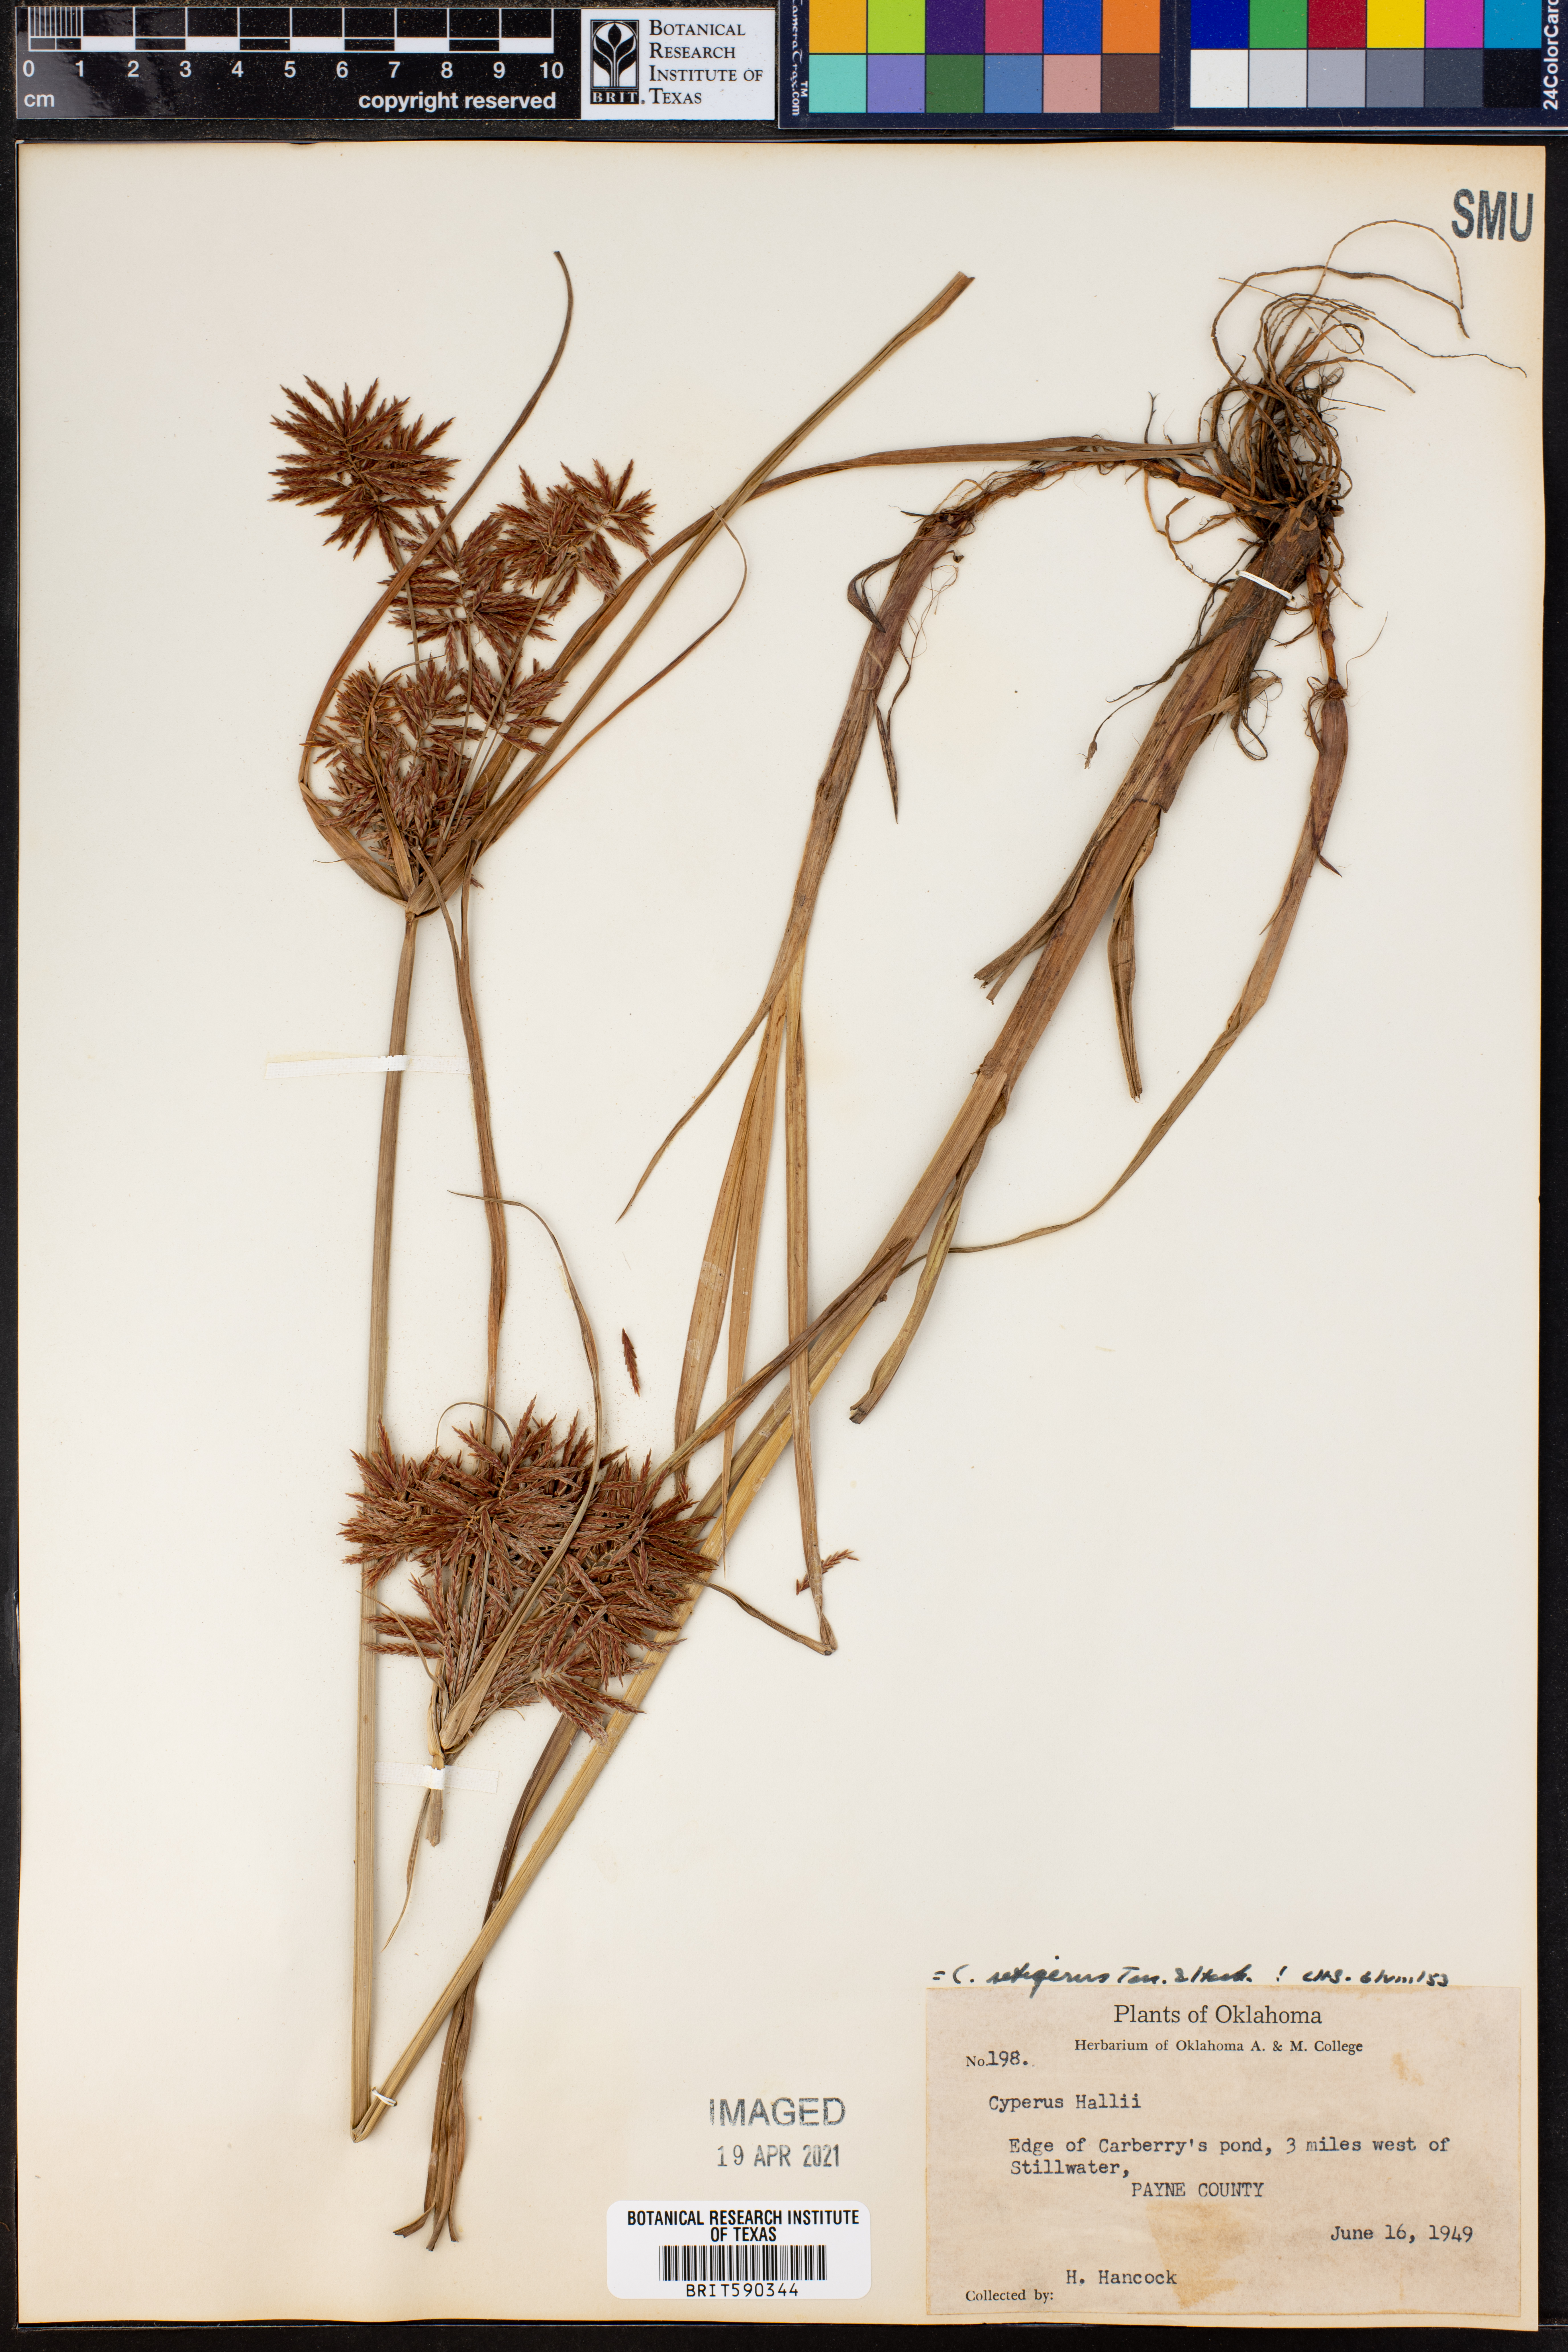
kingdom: Plantae
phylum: Tracheophyta
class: Liliopsida
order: Poales
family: Cyperaceae
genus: Cyperus
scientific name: Cyperus setigerus
